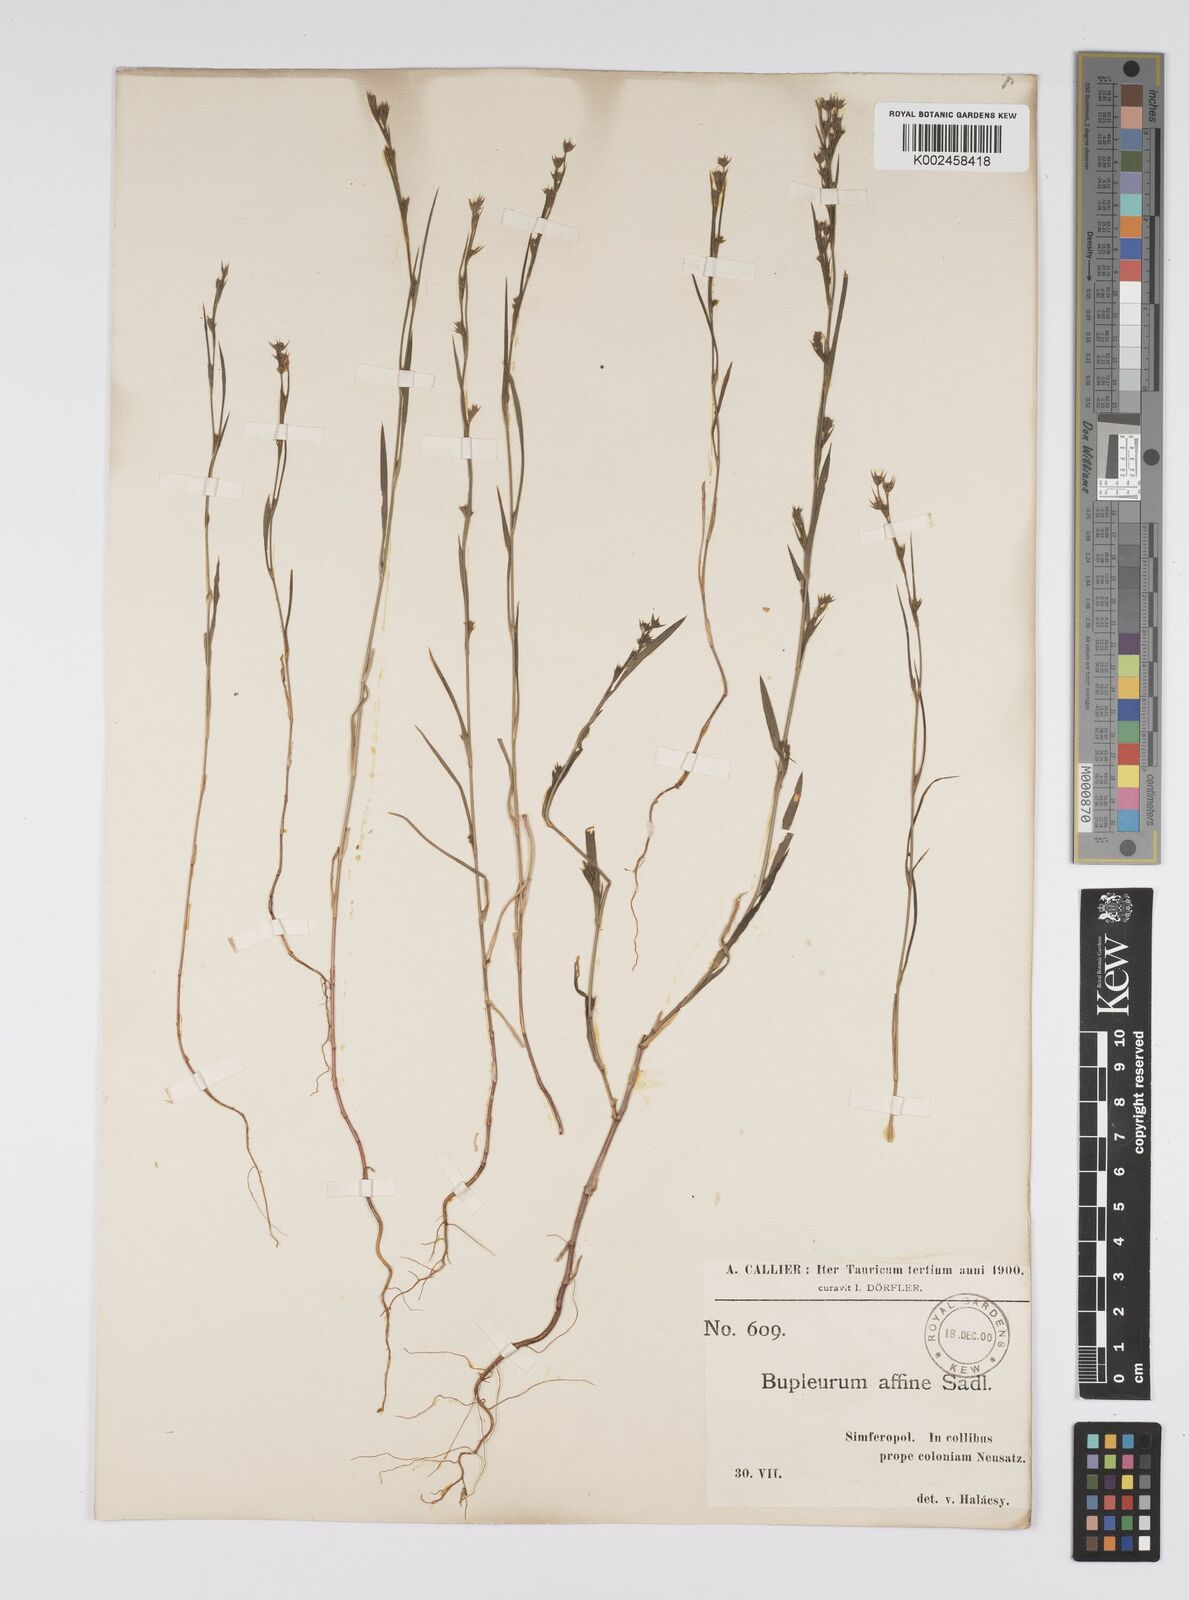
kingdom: Plantae
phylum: Tracheophyta
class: Magnoliopsida
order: Apiales
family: Apiaceae
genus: Bupleurum
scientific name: Bupleurum affine
